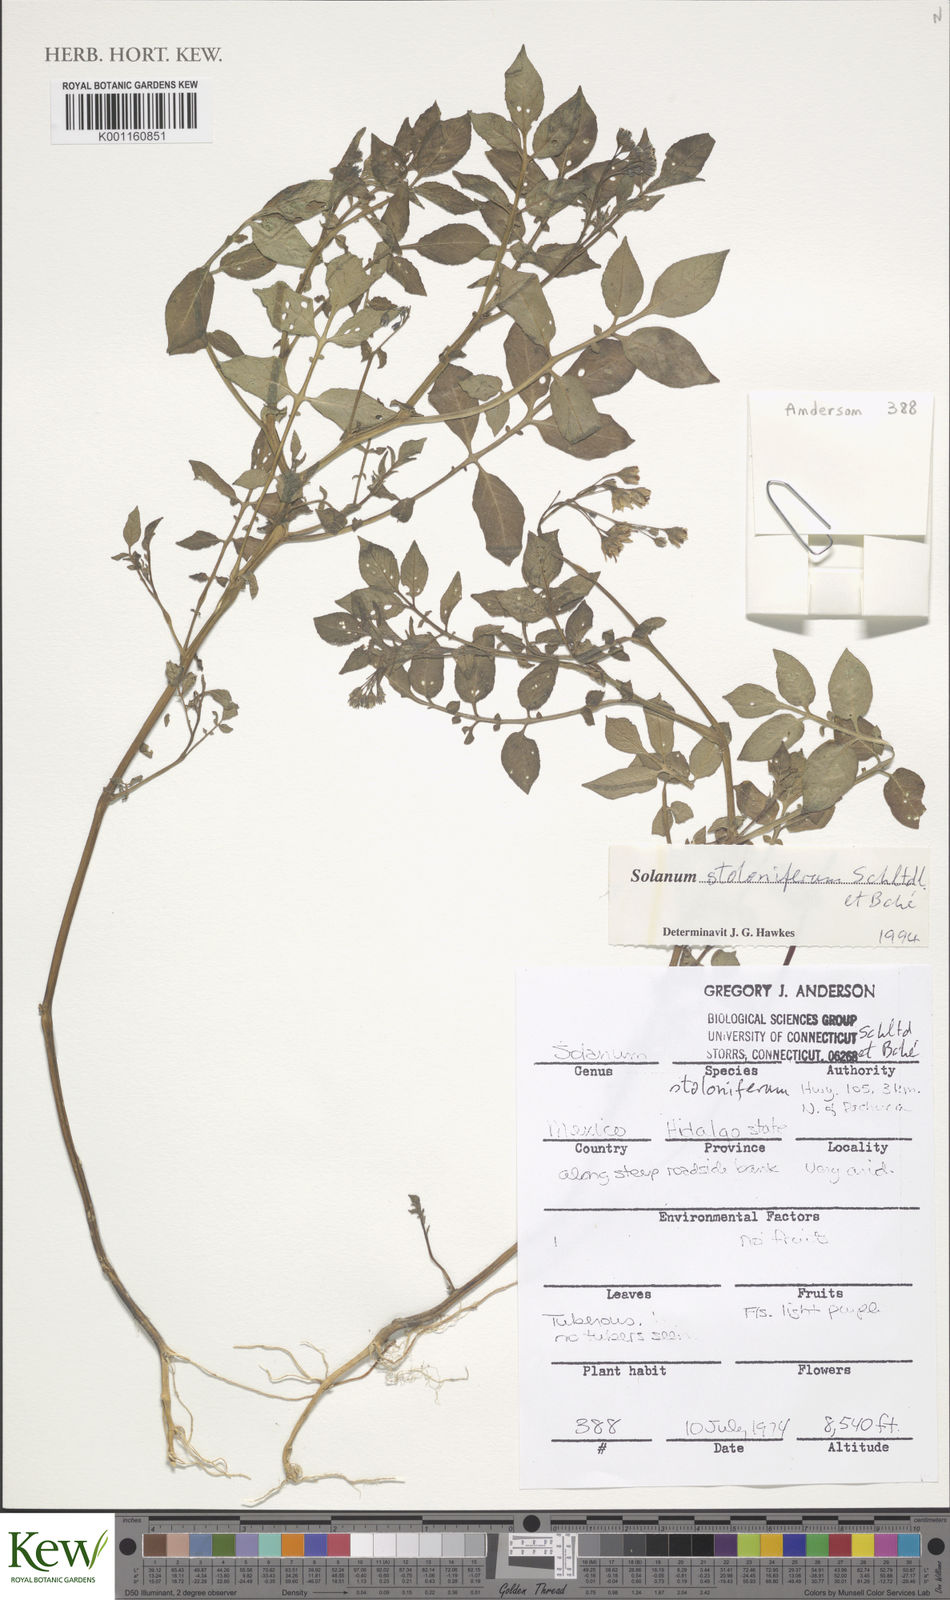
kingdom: Plantae
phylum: Tracheophyta
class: Magnoliopsida
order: Solanales
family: Solanaceae
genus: Solanum
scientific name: Solanum stoloniferum
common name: Fendler's nighshade
